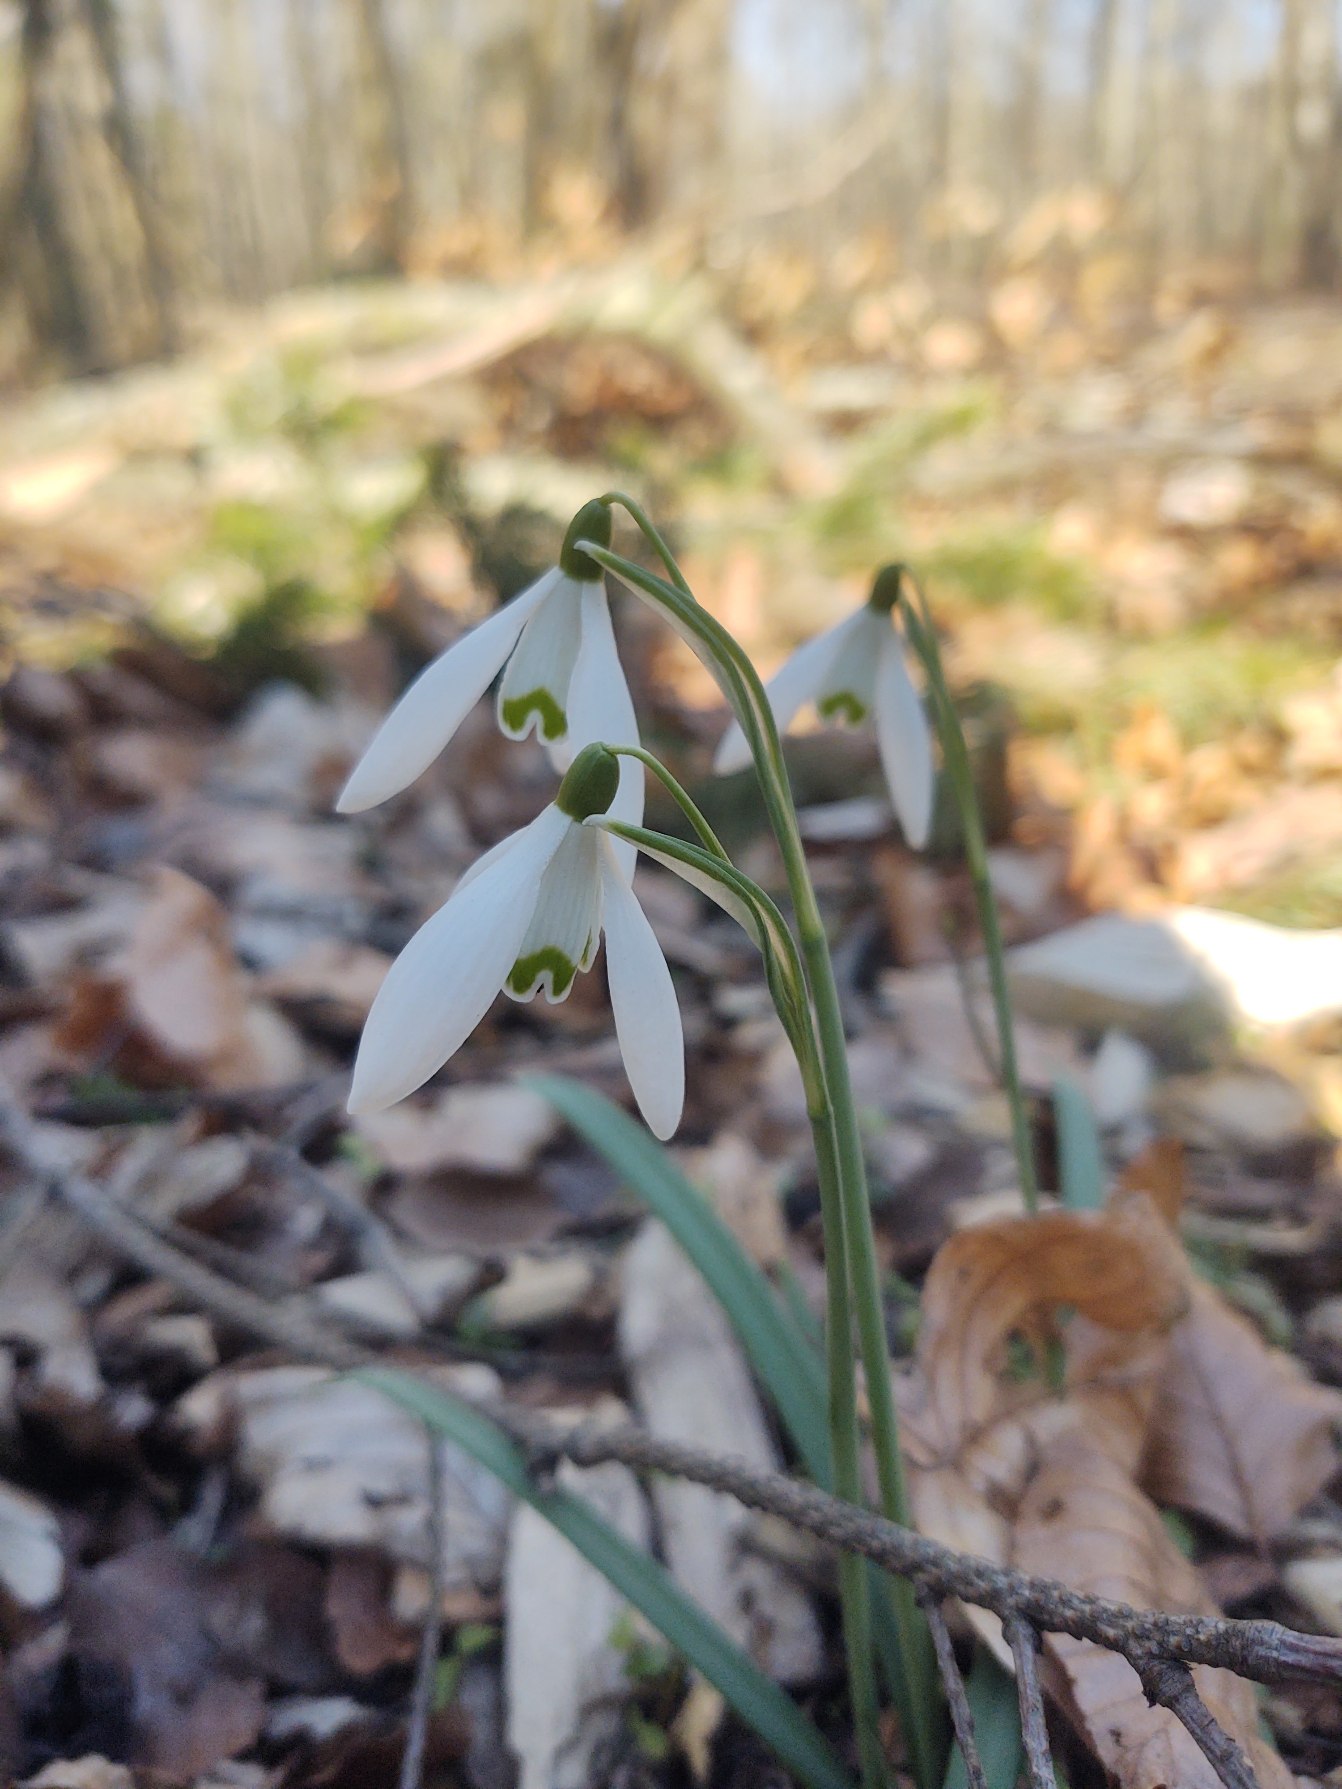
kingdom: Plantae
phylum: Tracheophyta
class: Liliopsida
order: Asparagales
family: Amaryllidaceae
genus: Galanthus
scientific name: Galanthus nivalis
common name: Vintergæk
